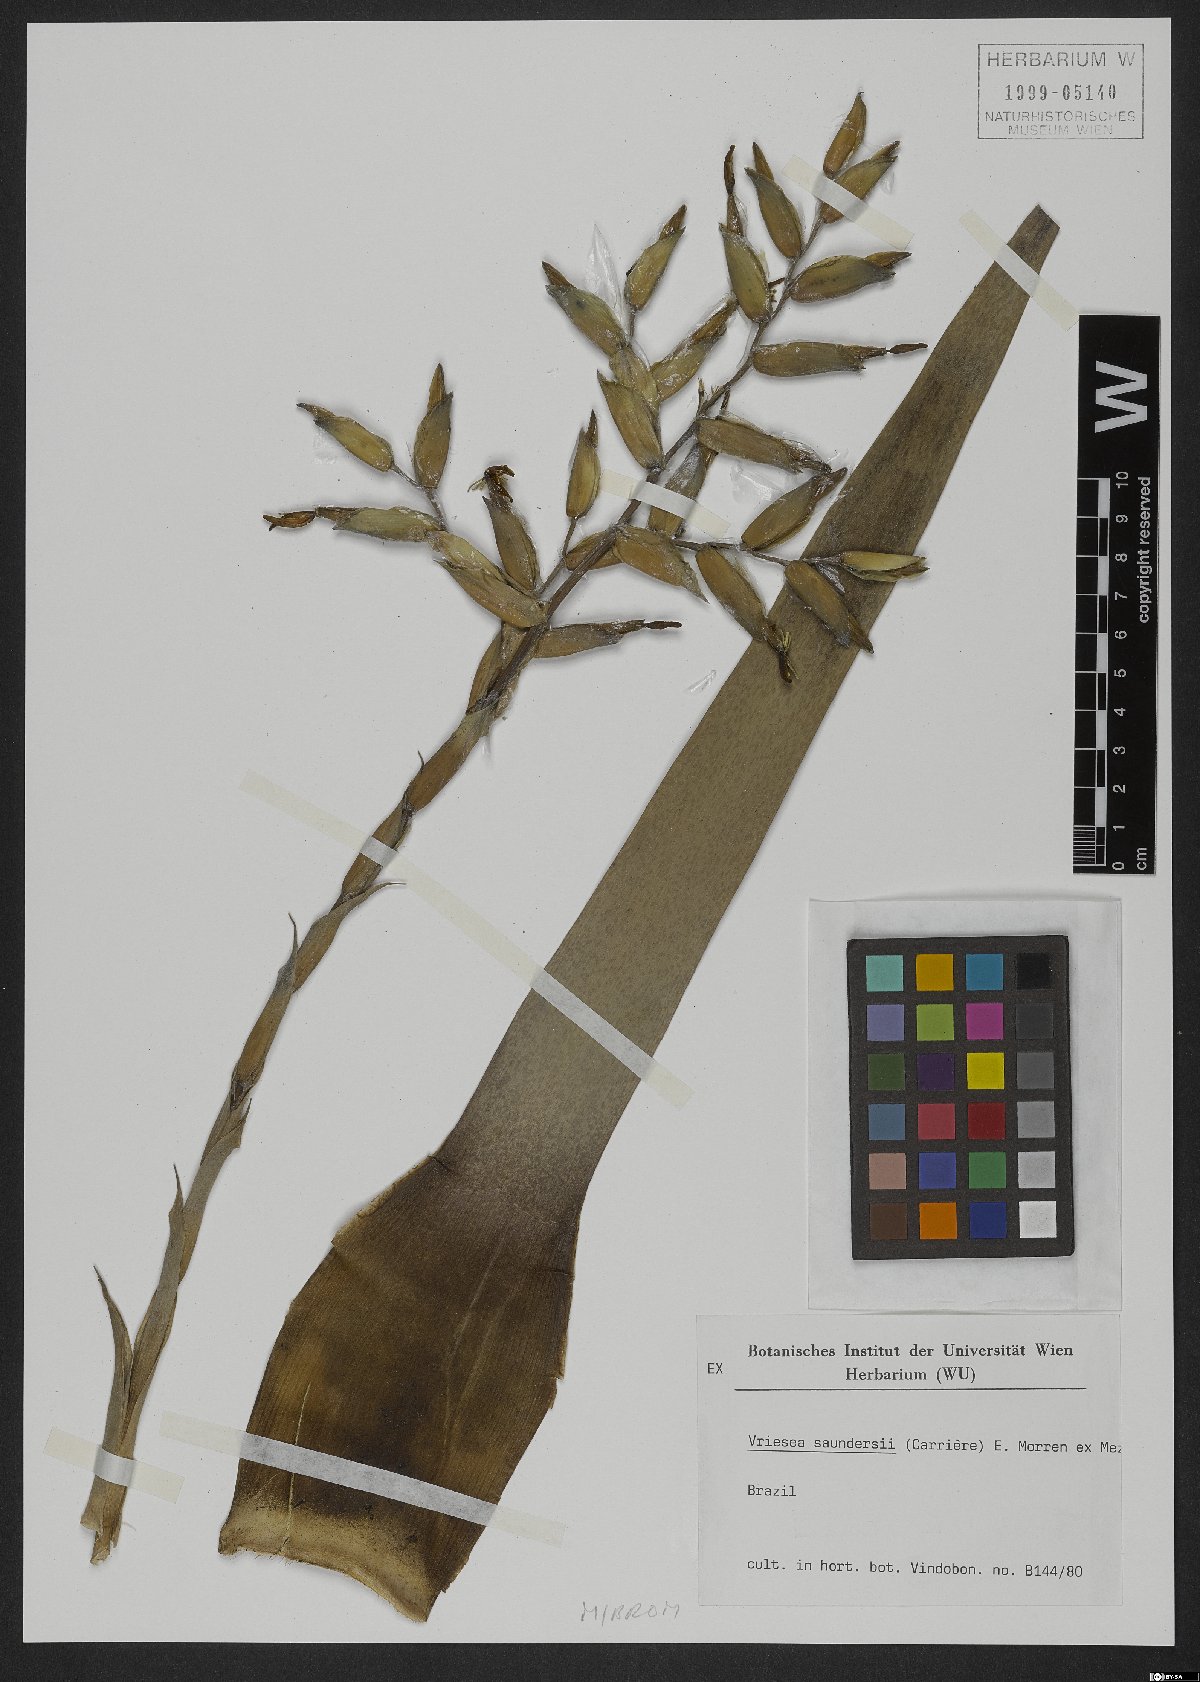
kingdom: Plantae
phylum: Tracheophyta
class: Liliopsida
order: Poales
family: Bromeliaceae
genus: Vriesea
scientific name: Vriesea saundersii
